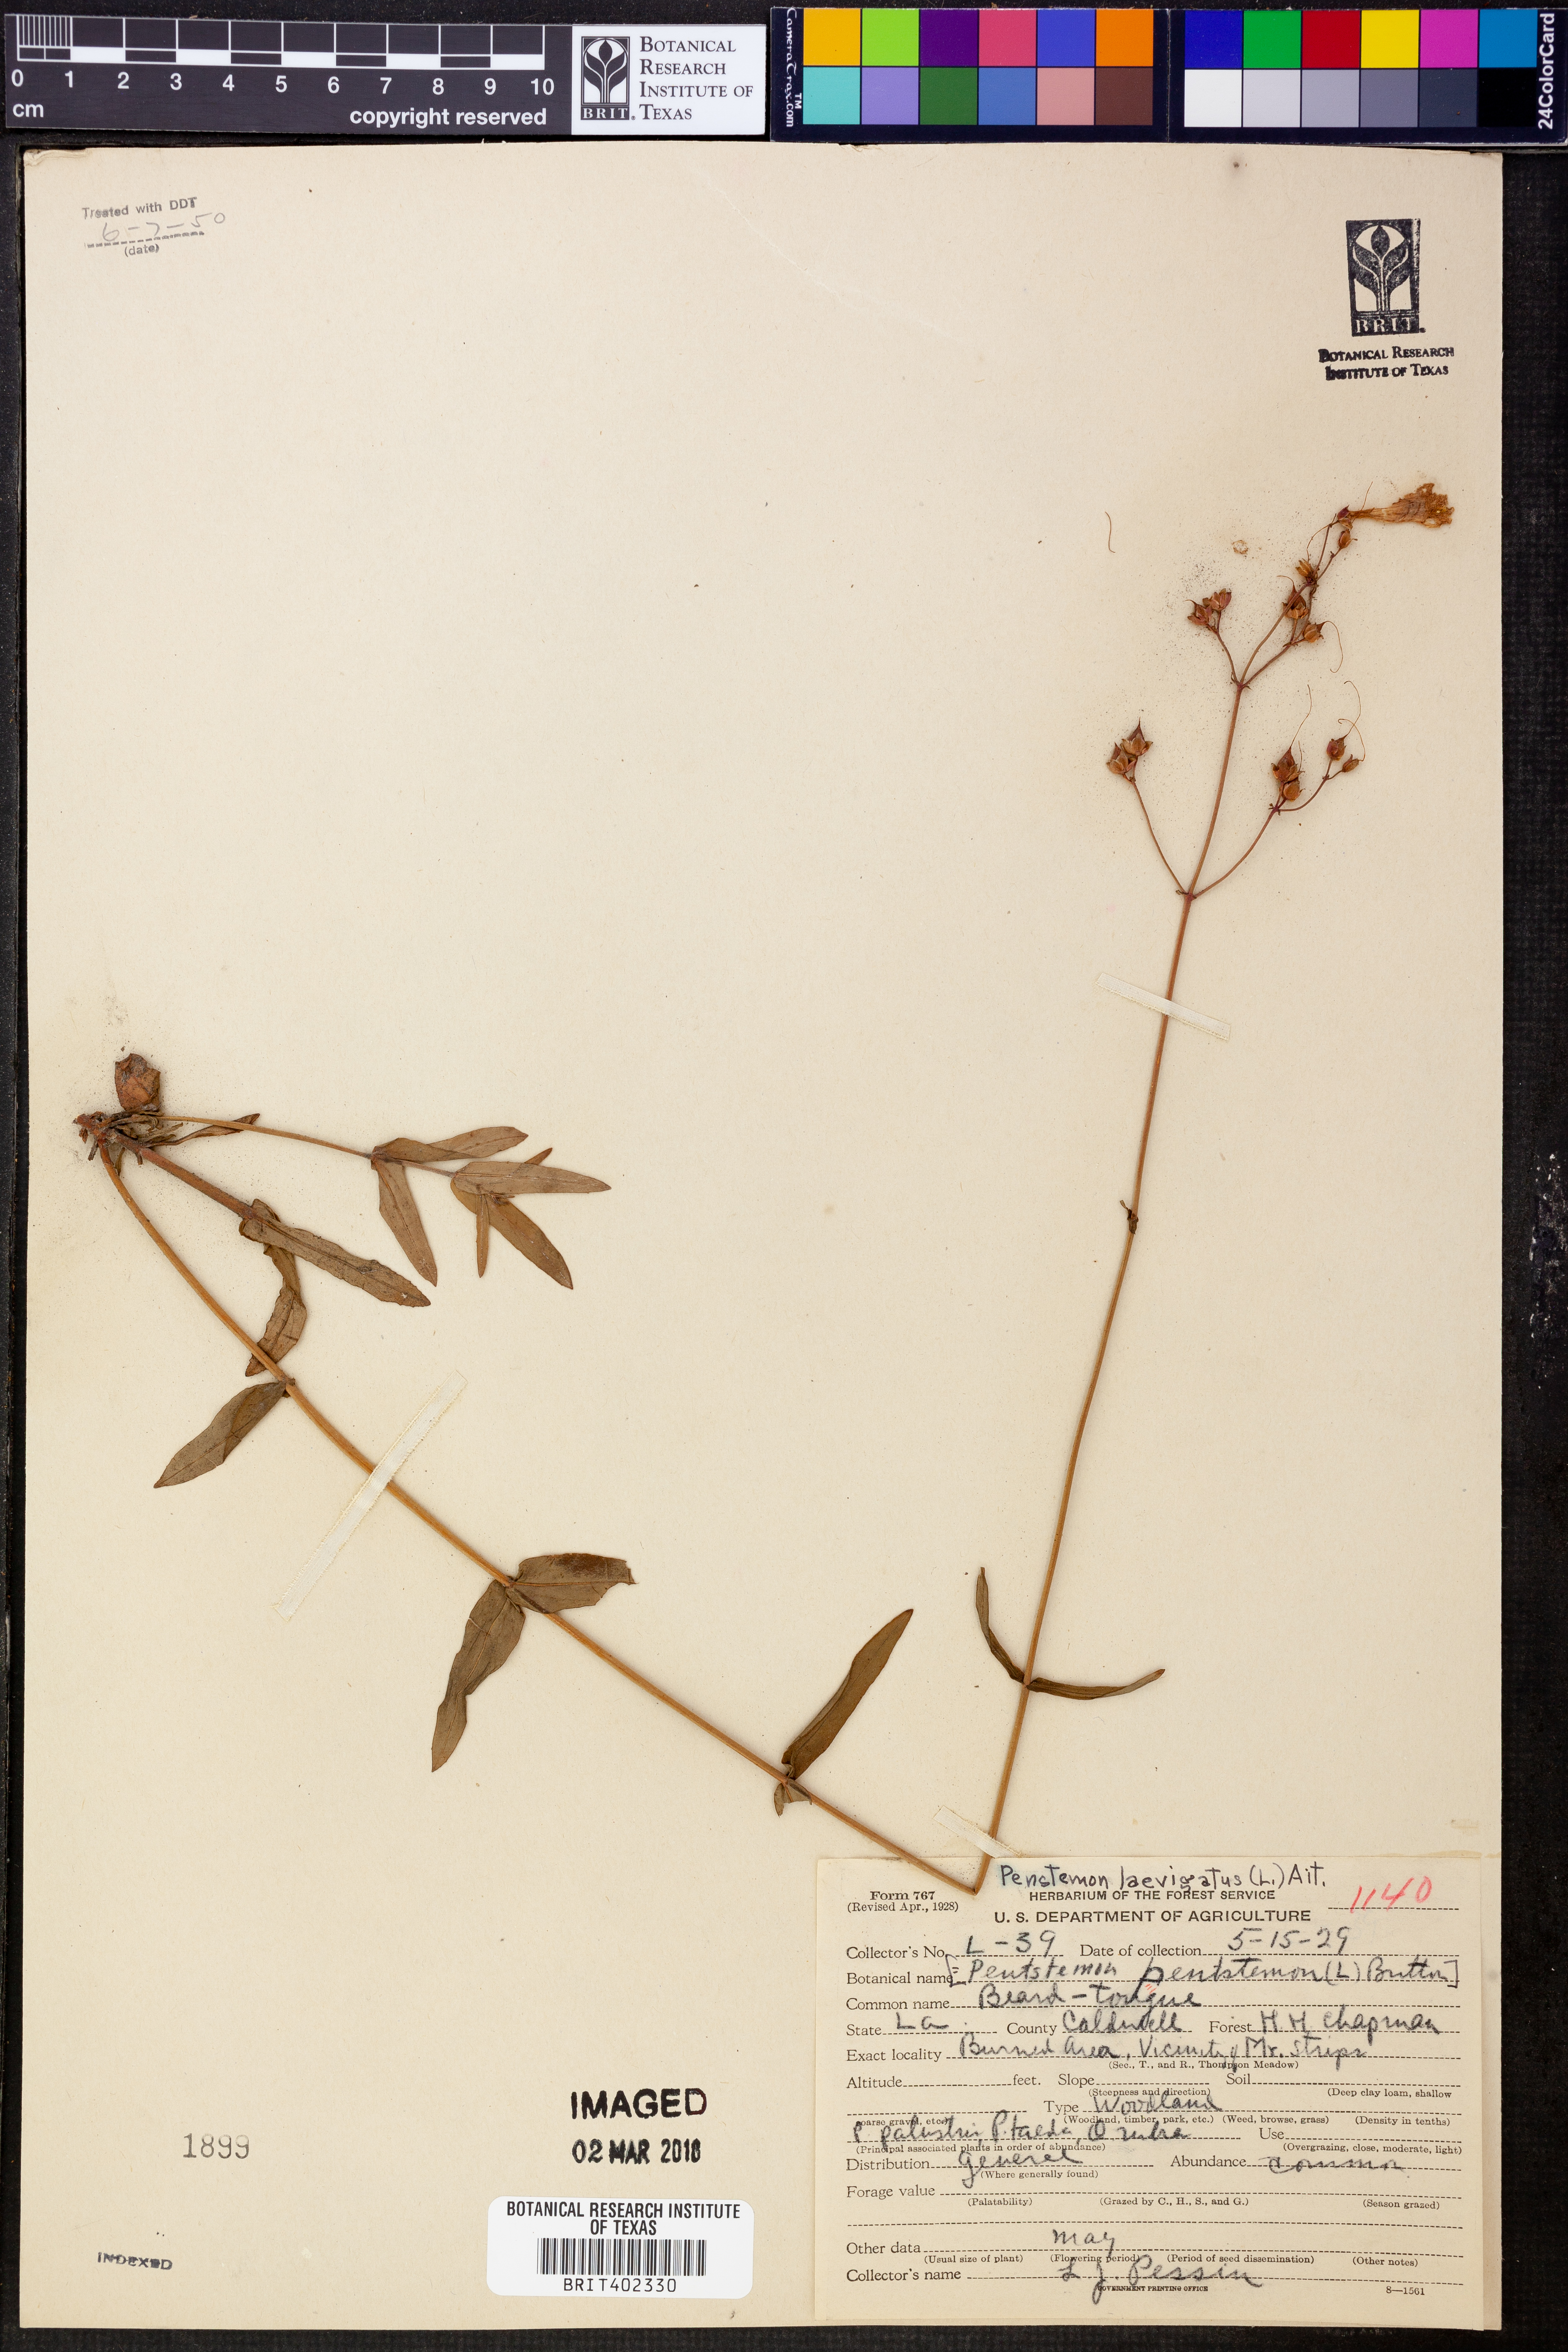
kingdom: Plantae
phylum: Tracheophyta
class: Magnoliopsida
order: Lamiales
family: Plantaginaceae
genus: Penstemon
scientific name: Penstemon laevigatus
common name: Eastern beardtongue
